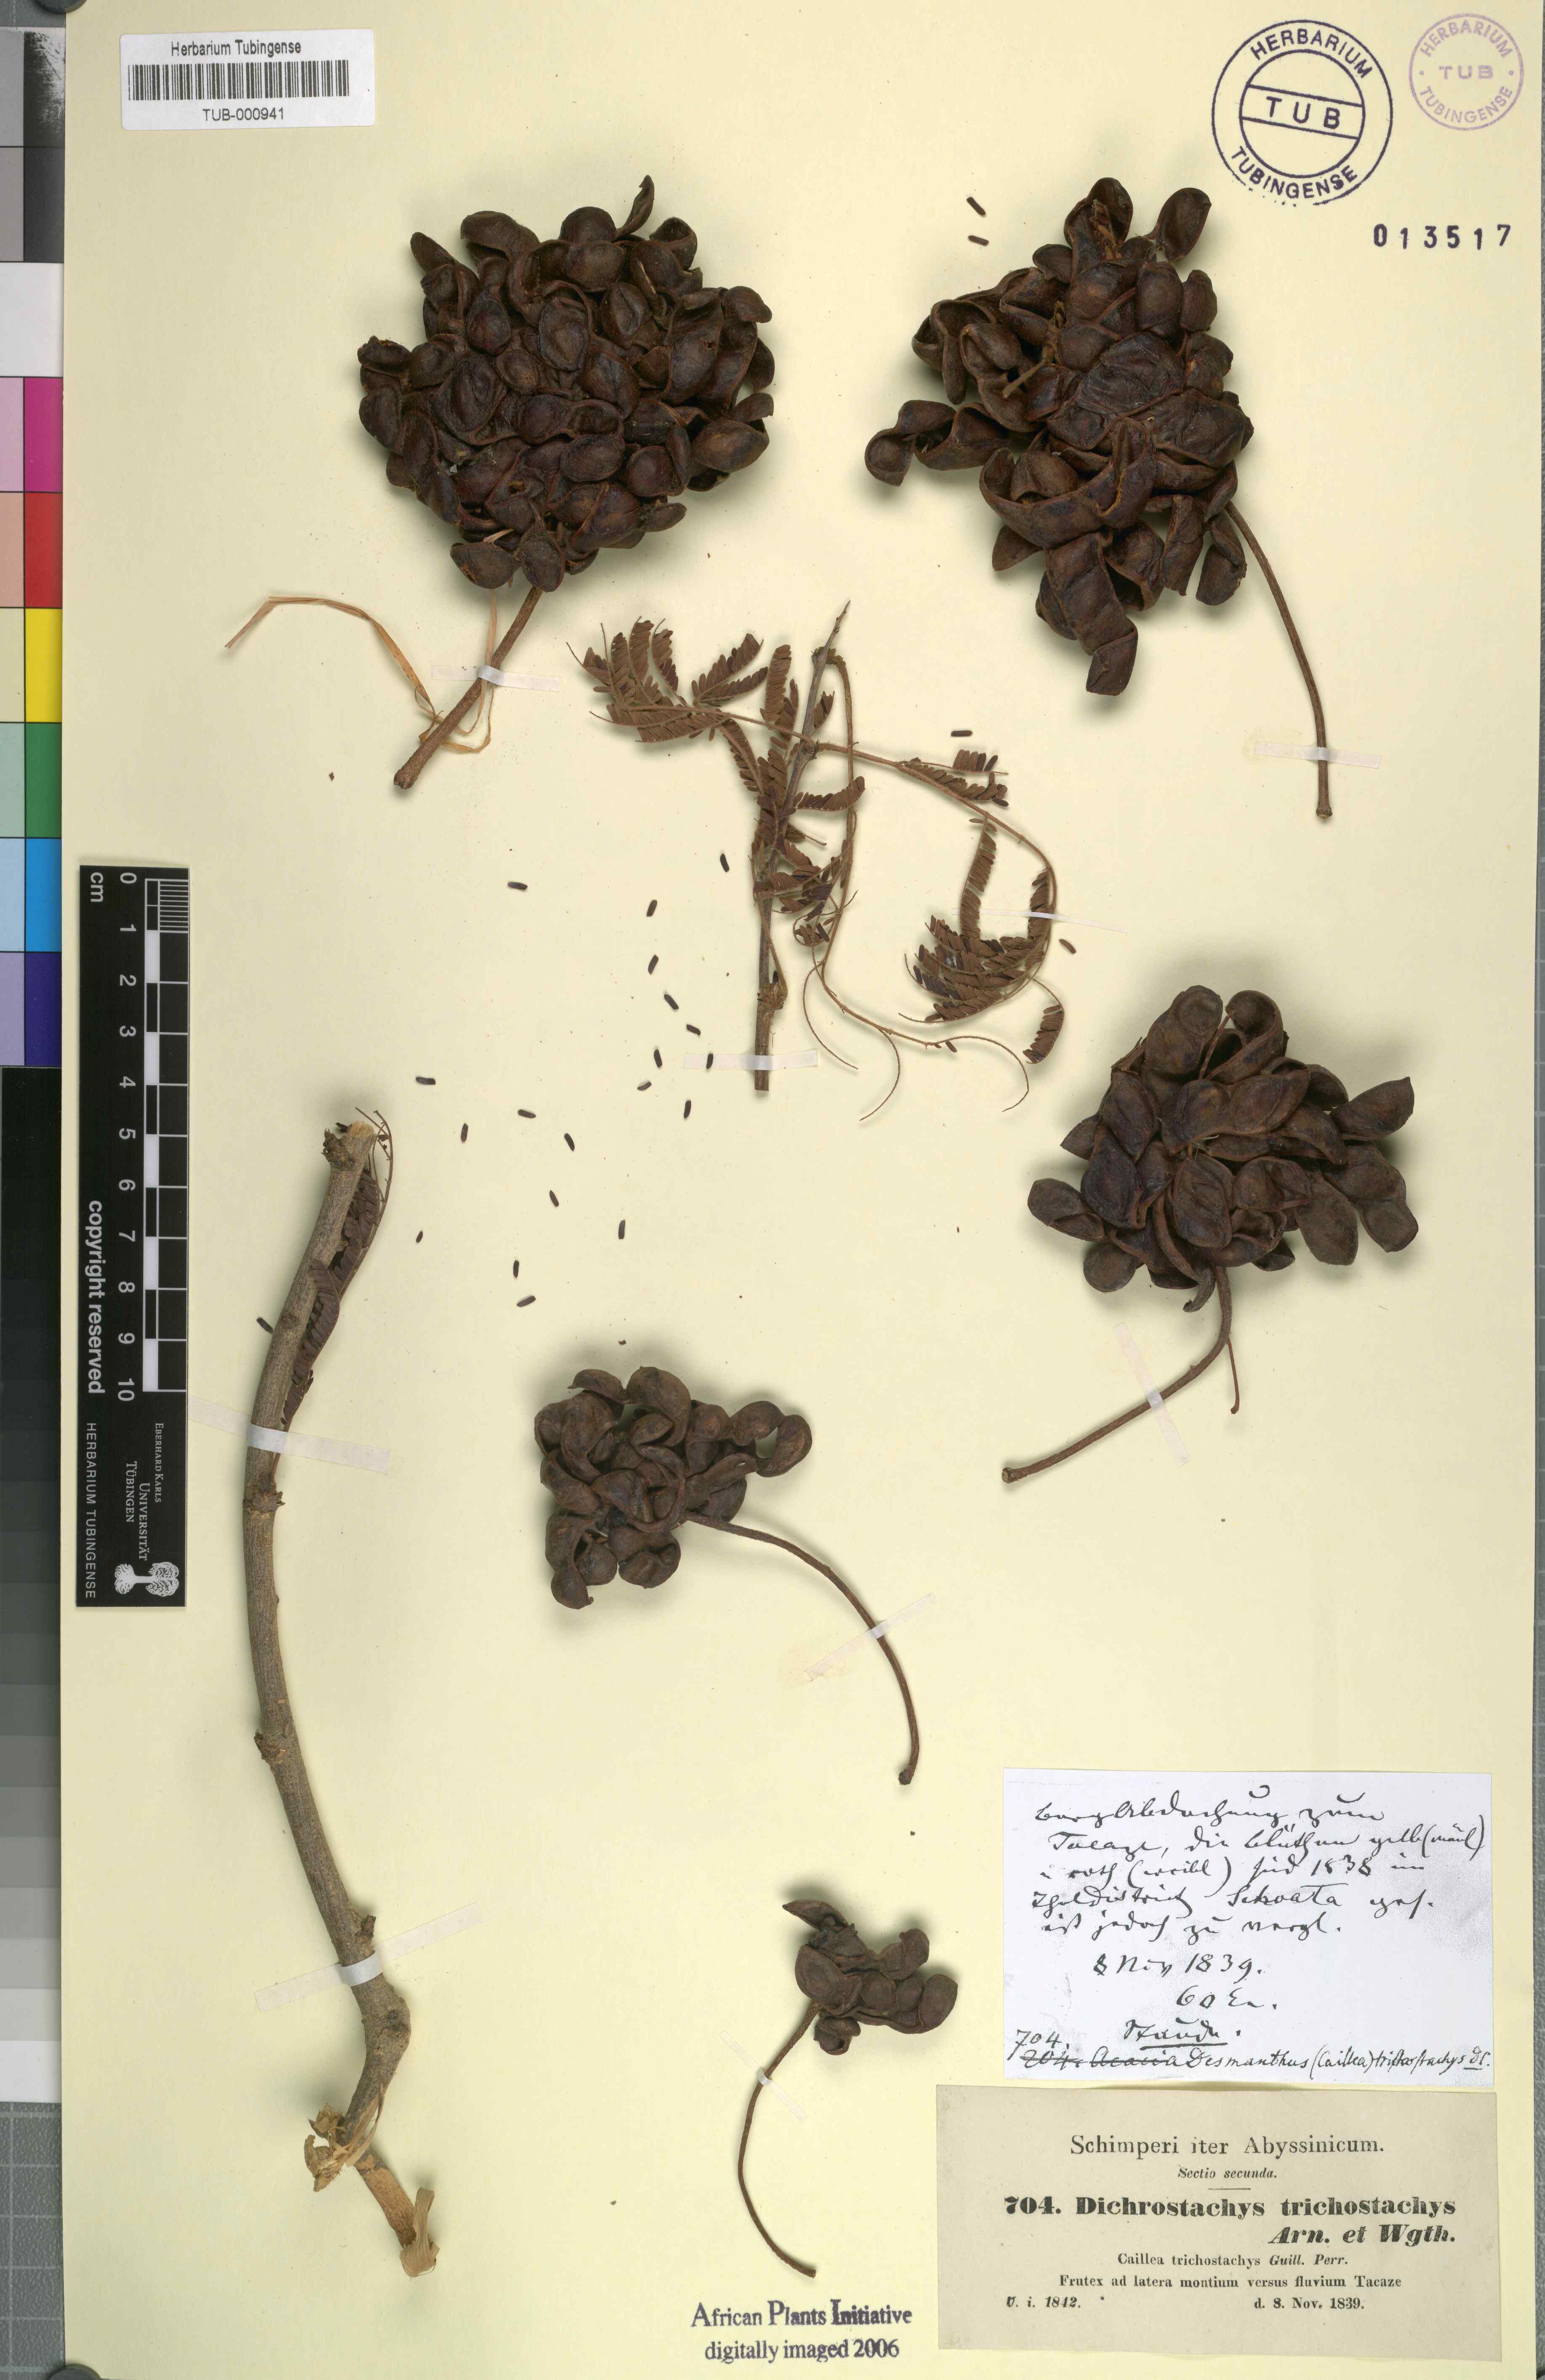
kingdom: Plantae
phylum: Tracheophyta
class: Magnoliopsida
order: Fabales
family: Fabaceae
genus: Dichrostachys
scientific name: Dichrostachys cinerea
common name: Sicklebush
